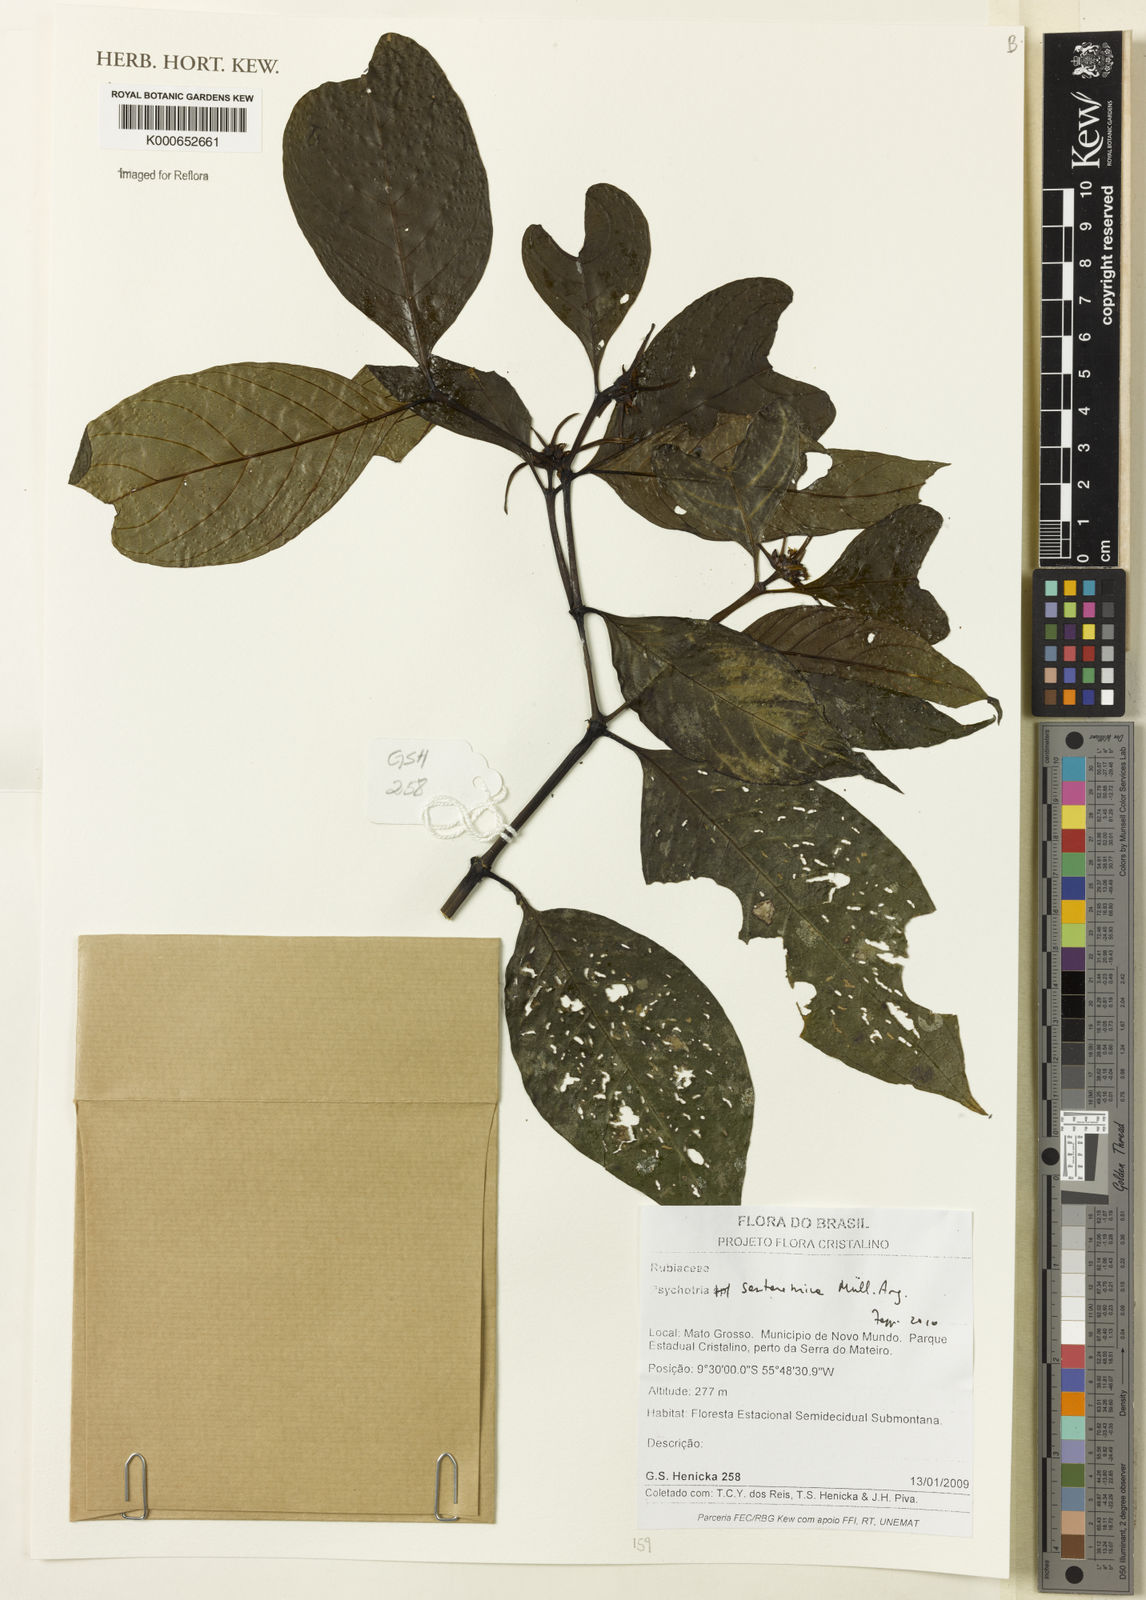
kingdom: Plantae
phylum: Tracheophyta
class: Magnoliopsida
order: Gentianales
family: Rubiaceae
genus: Psychotria
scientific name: Psychotria
